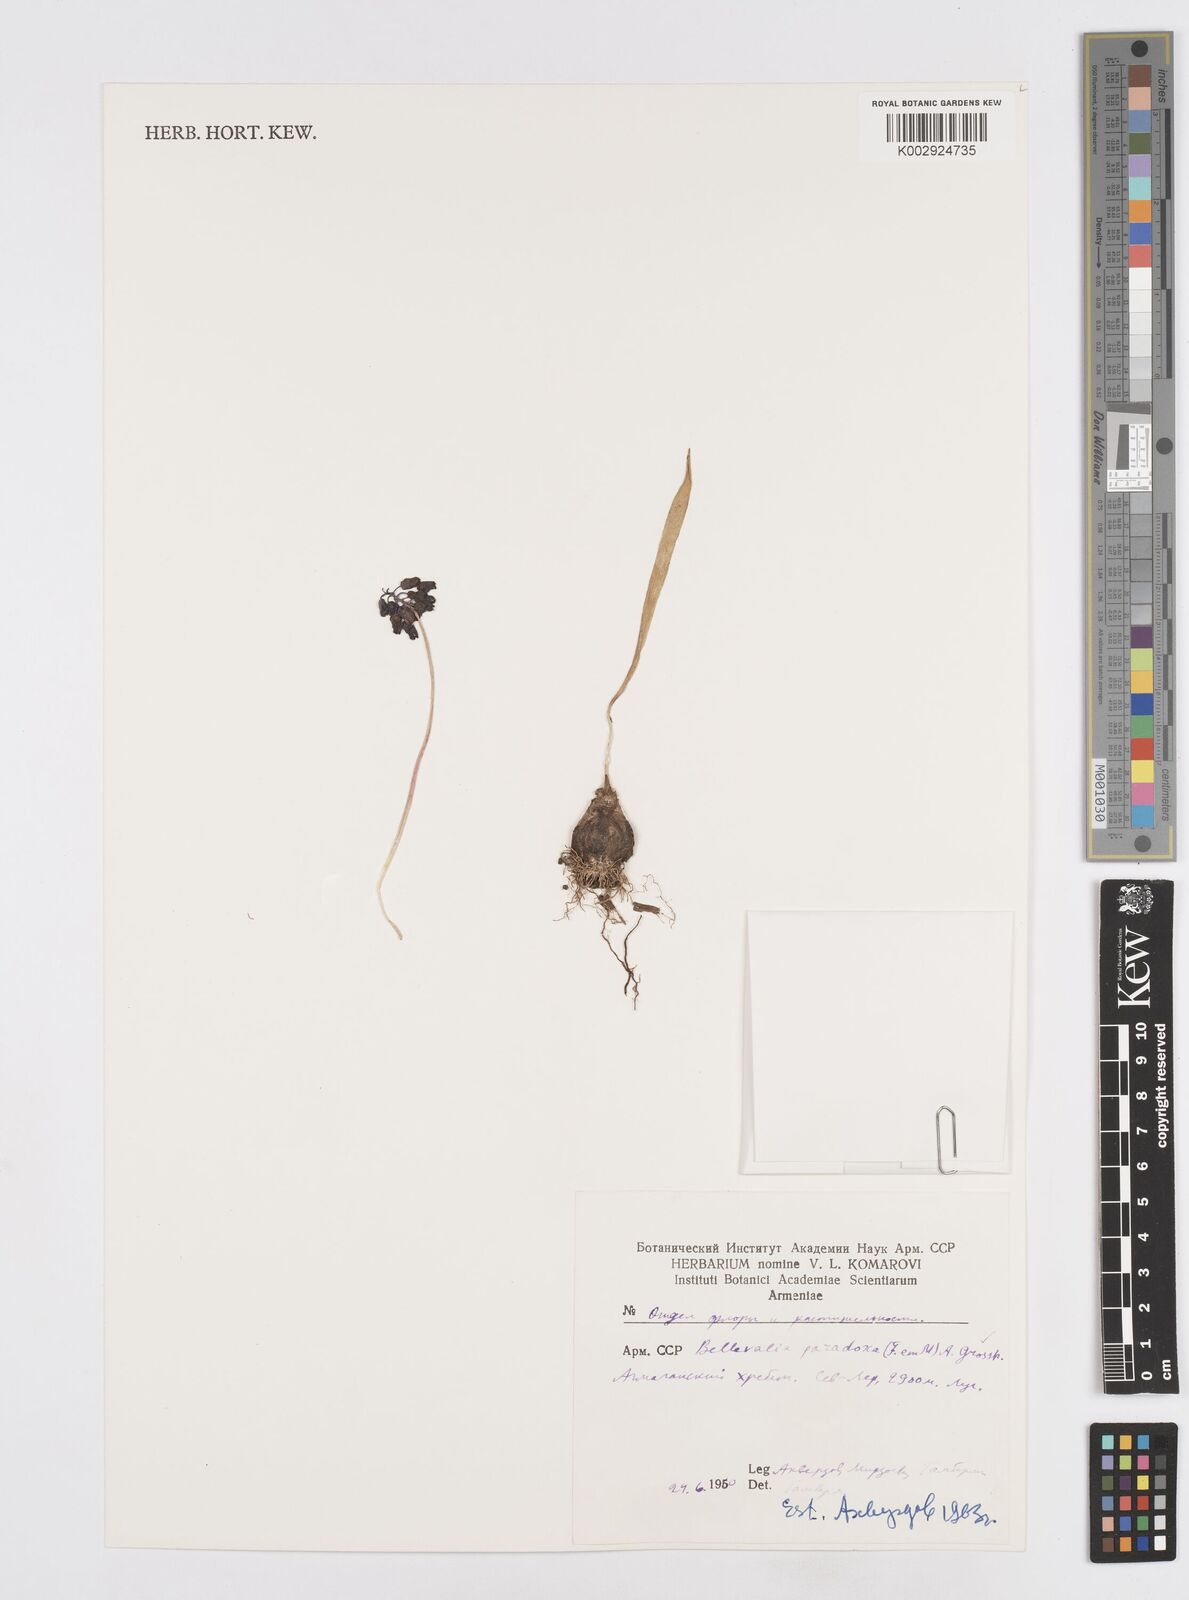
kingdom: Plantae
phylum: Tracheophyta
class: Liliopsida
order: Asparagales
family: Asparagaceae
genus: Bellevalia
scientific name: Bellevalia paradoxa
